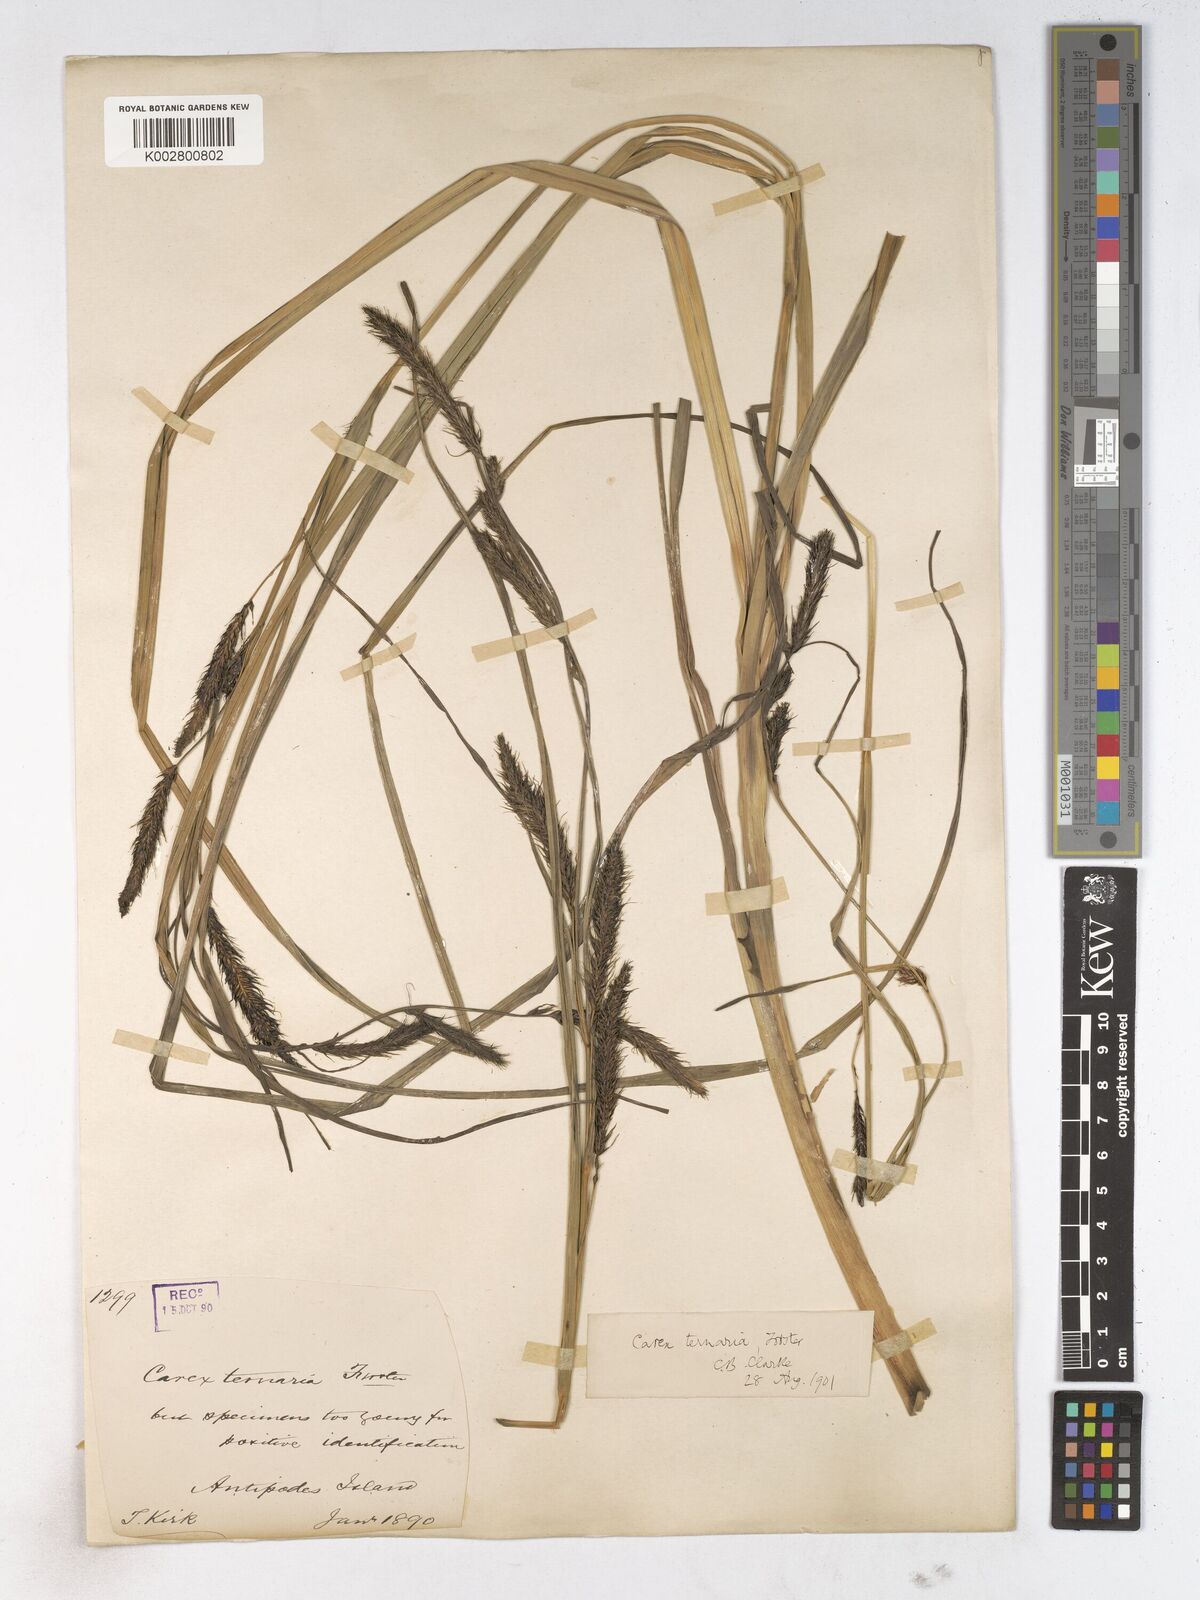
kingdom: Plantae
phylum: Tracheophyta
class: Liliopsida
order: Poales
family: Cyperaceae
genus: Carex
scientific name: Carex geminata
